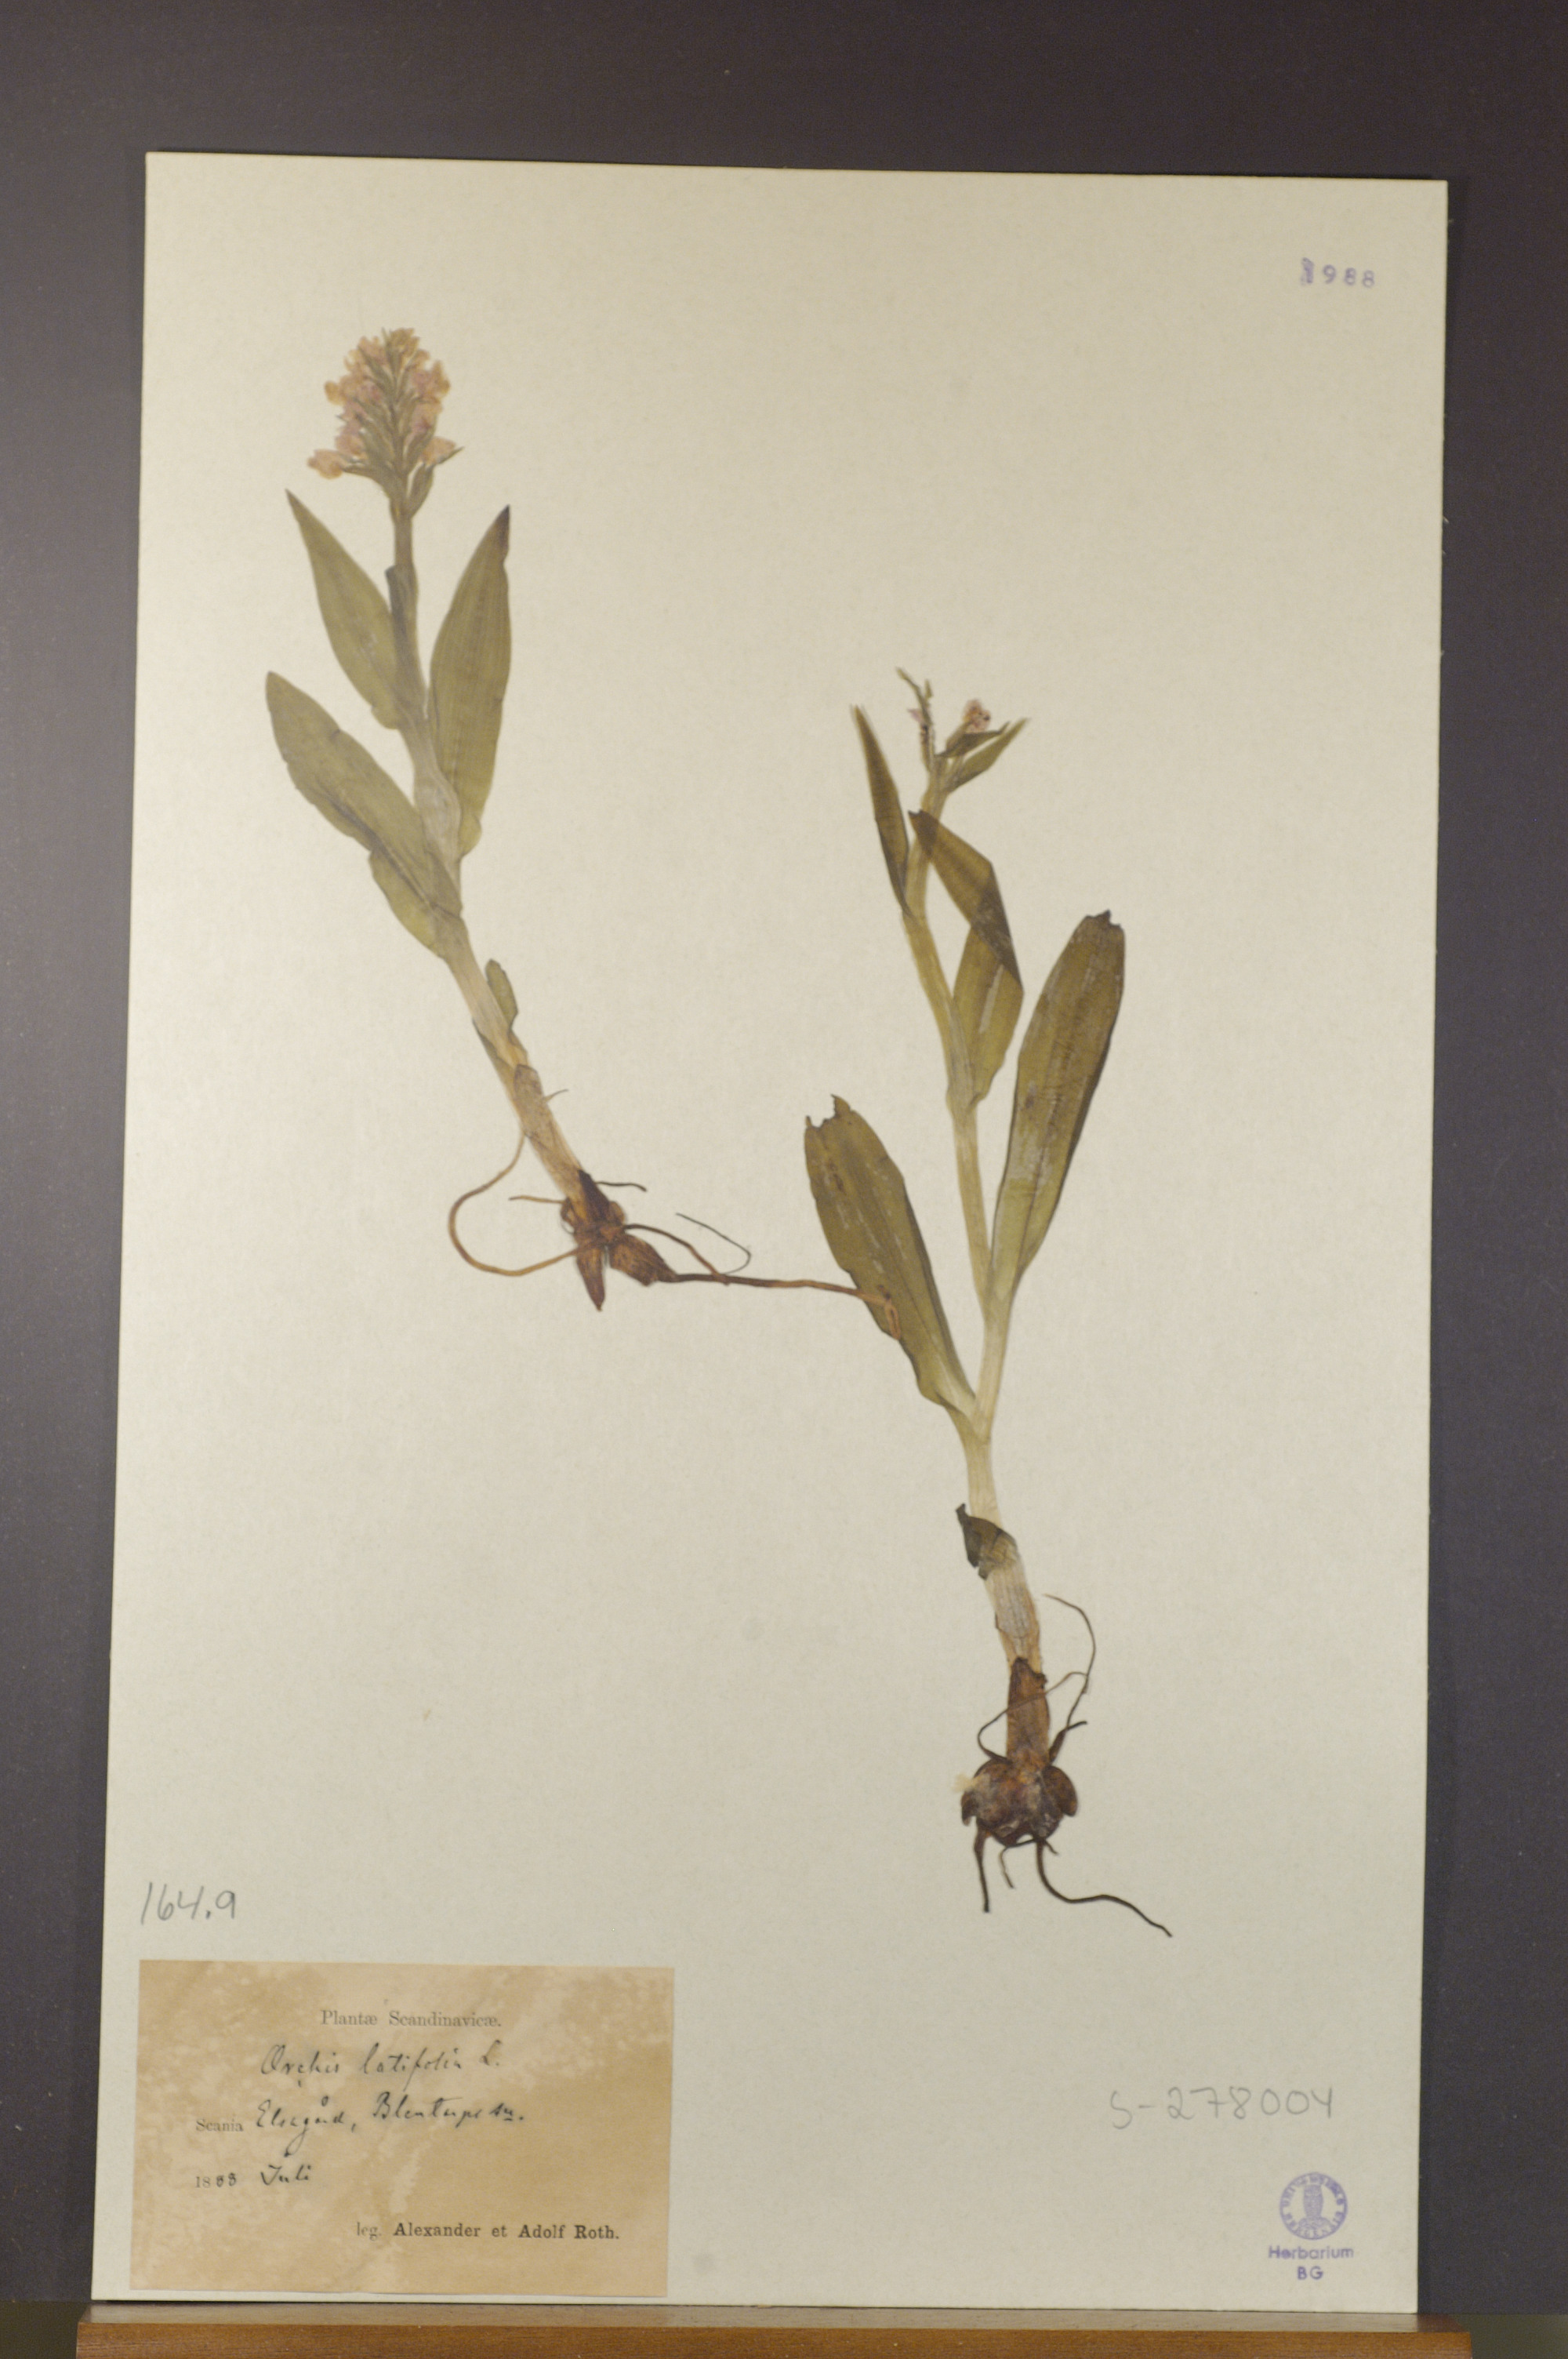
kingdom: Plantae
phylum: Tracheophyta
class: Liliopsida
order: Asparagales
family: Orchidaceae
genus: Dactylorhiza
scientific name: Dactylorhiza incarnata
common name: Early marsh-orchid
